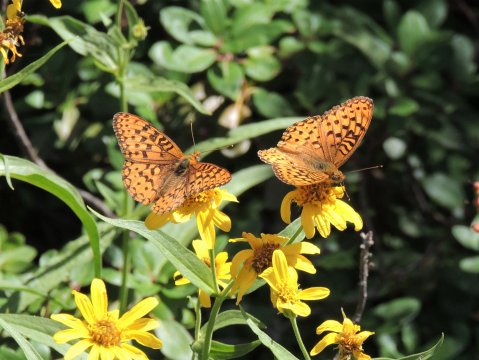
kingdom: Animalia
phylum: Arthropoda
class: Insecta
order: Lepidoptera
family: Nymphalidae
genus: Speyeria
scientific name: Speyeria mormonia
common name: Mormon Fritillary
